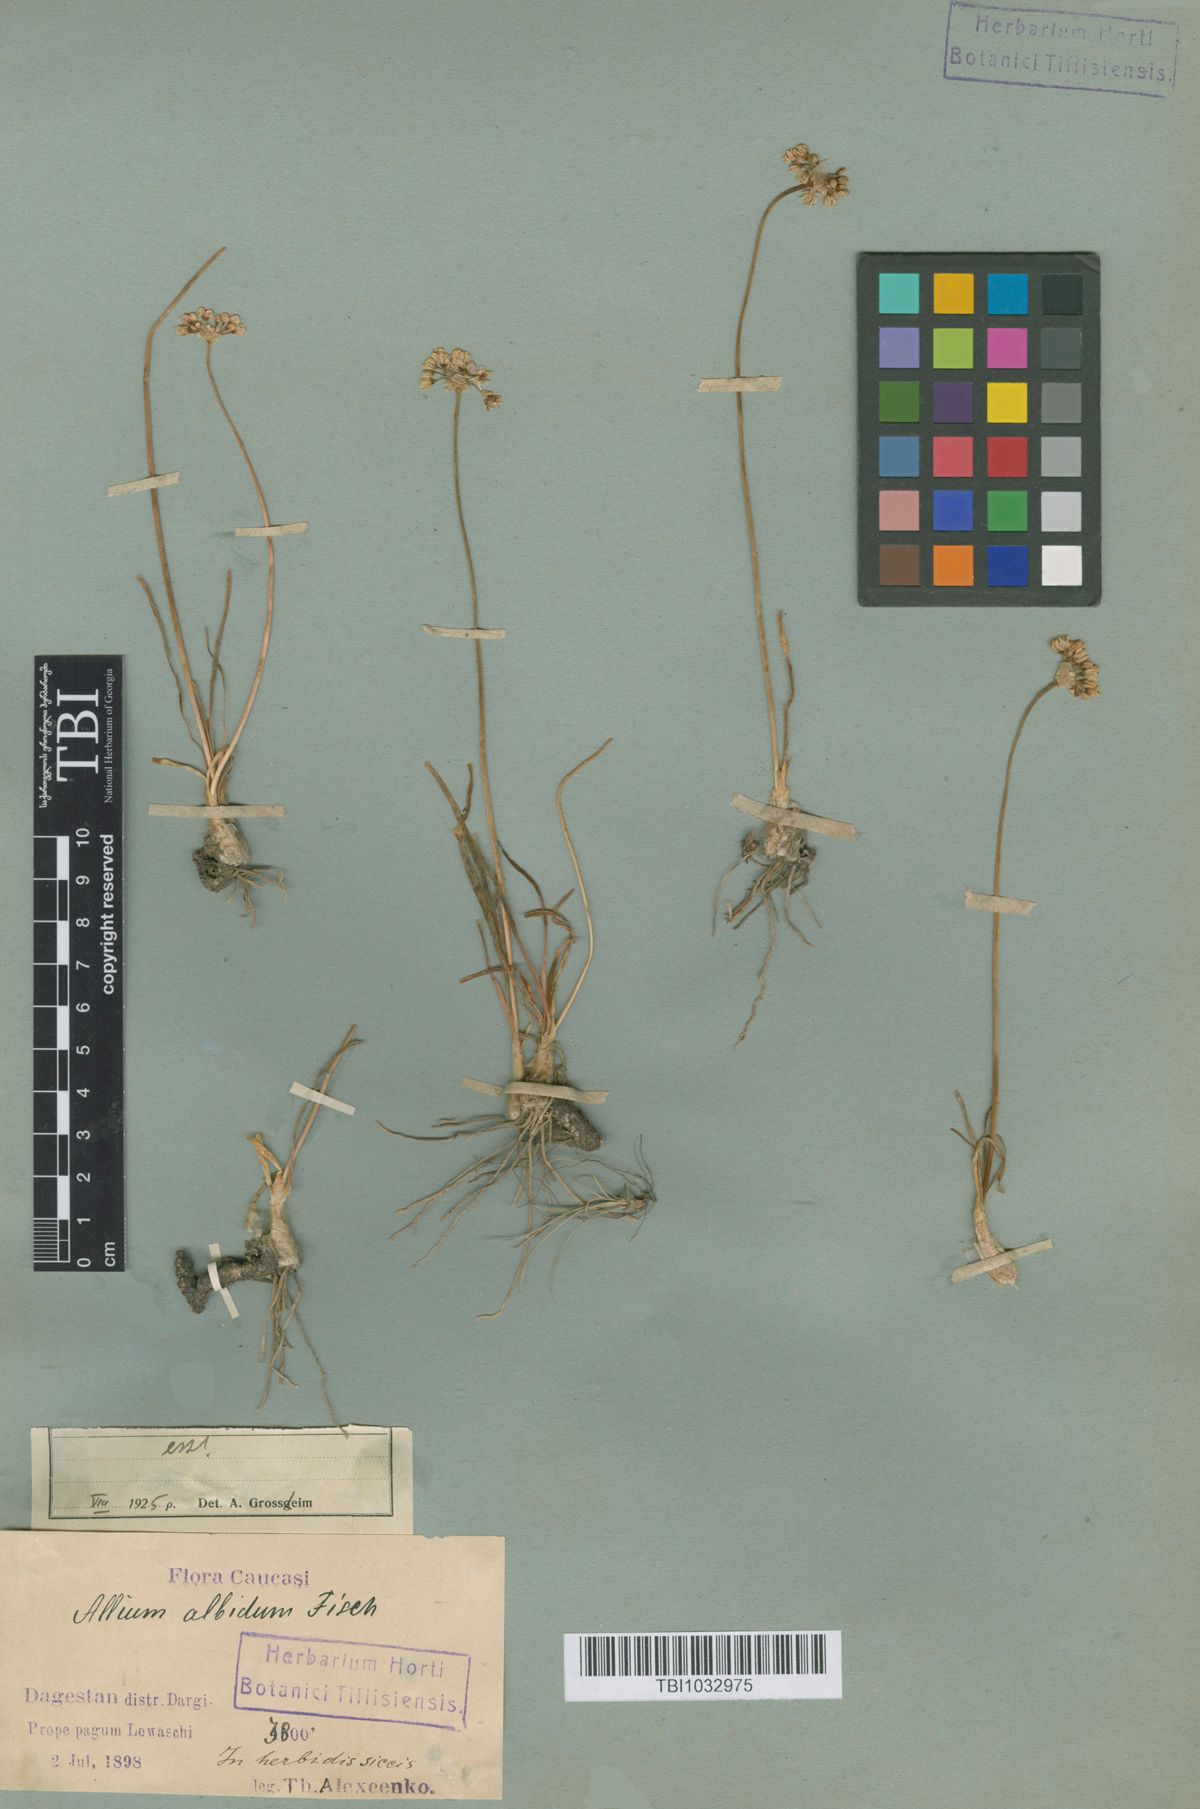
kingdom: Plantae
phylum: Tracheophyta
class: Liliopsida
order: Asparagales
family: Amaryllidaceae
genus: Allium
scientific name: Allium denudatum
